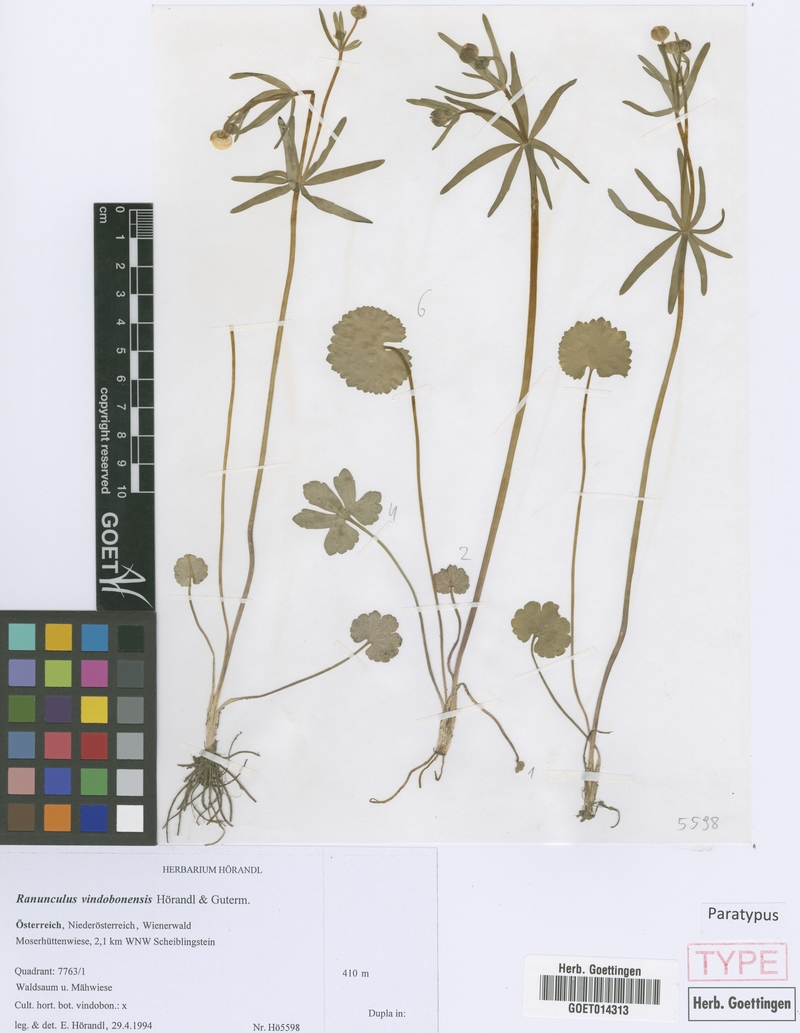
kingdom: Plantae
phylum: Tracheophyta
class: Magnoliopsida
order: Ranunculales
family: Ranunculaceae
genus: Ranunculus
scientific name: Ranunculus vindobonensis
